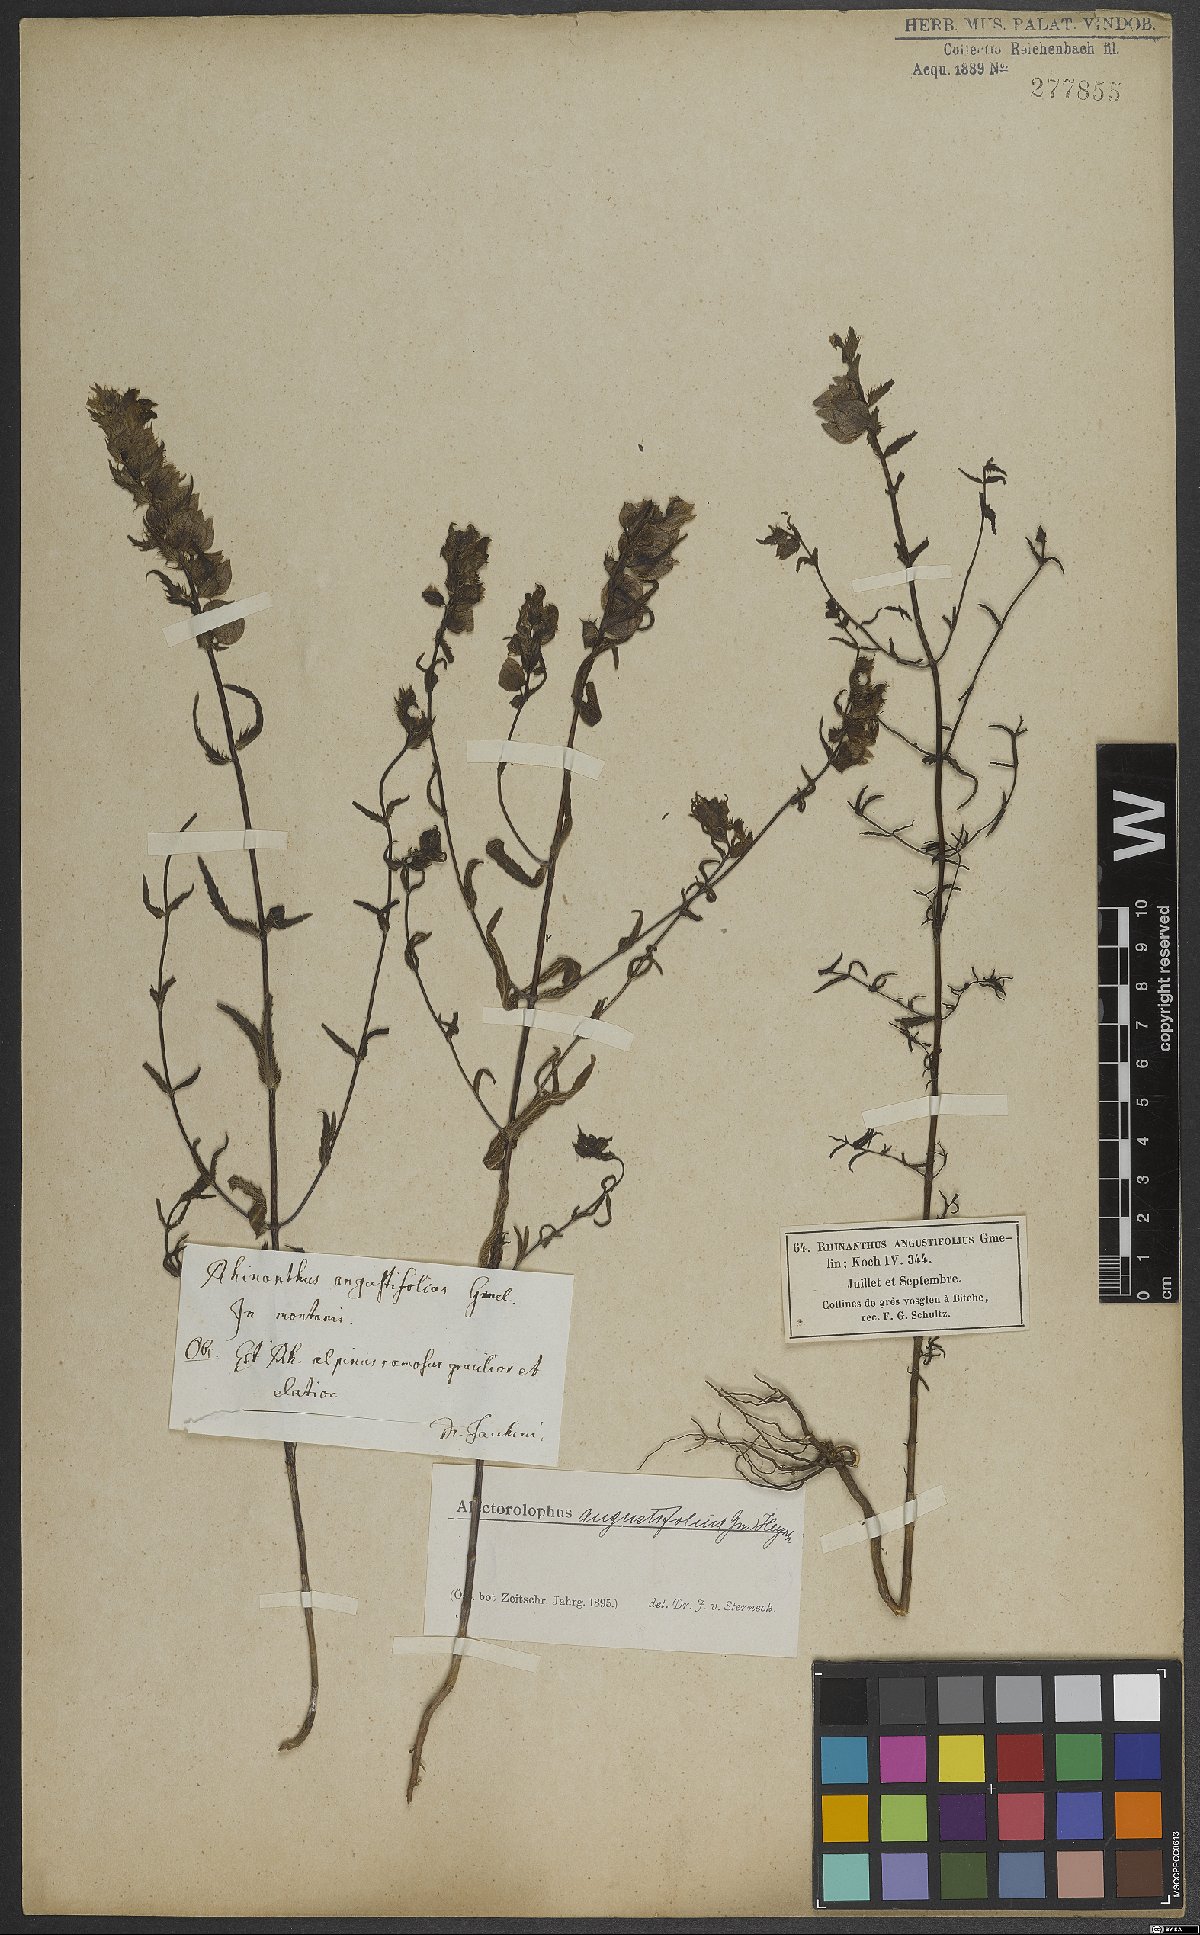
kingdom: Plantae
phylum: Tracheophyta
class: Magnoliopsida
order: Lamiales
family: Orobanchaceae
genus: Rhinanthus
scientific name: Rhinanthus glacialis
